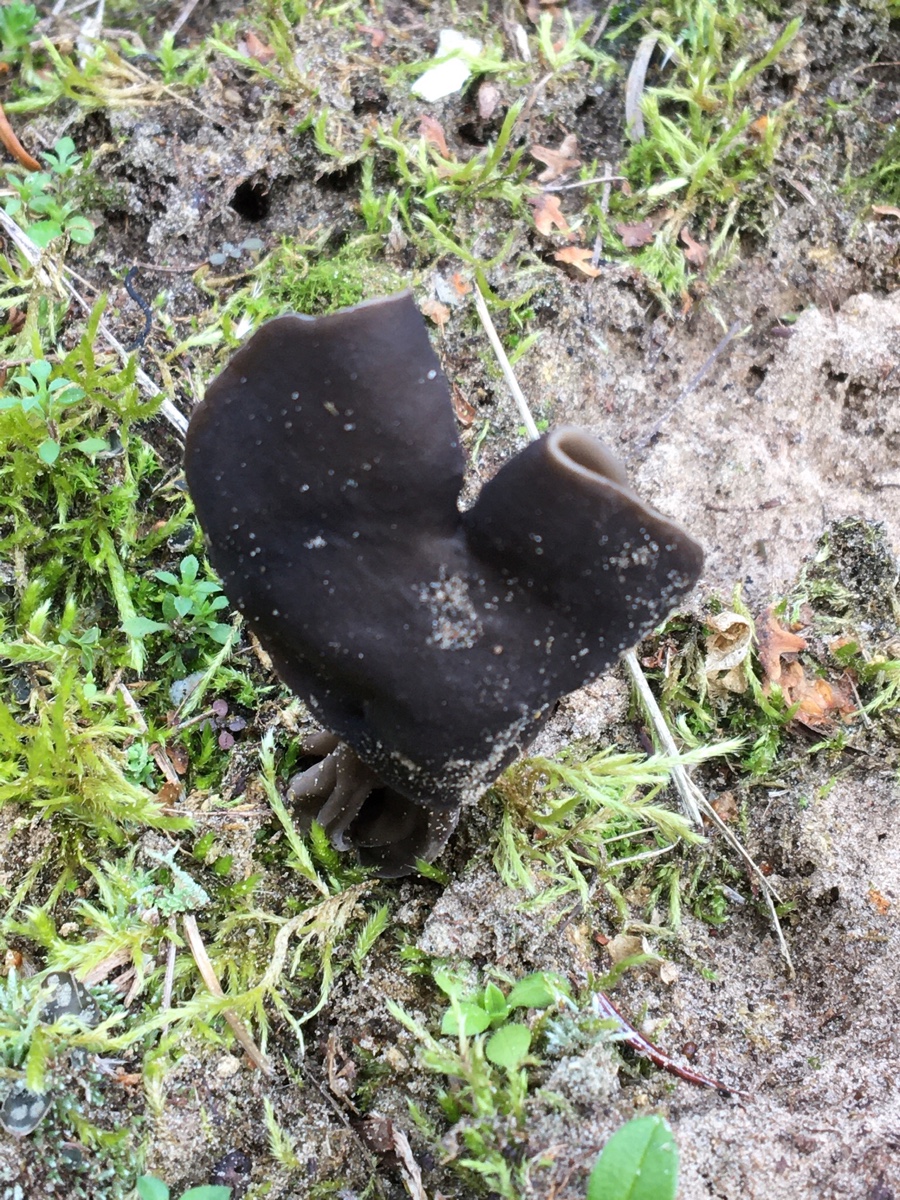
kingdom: Fungi
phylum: Ascomycota
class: Pezizomycetes
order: Pezizales
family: Helvellaceae
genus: Helvella
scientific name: Helvella lacunosa
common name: grubet foldhat
